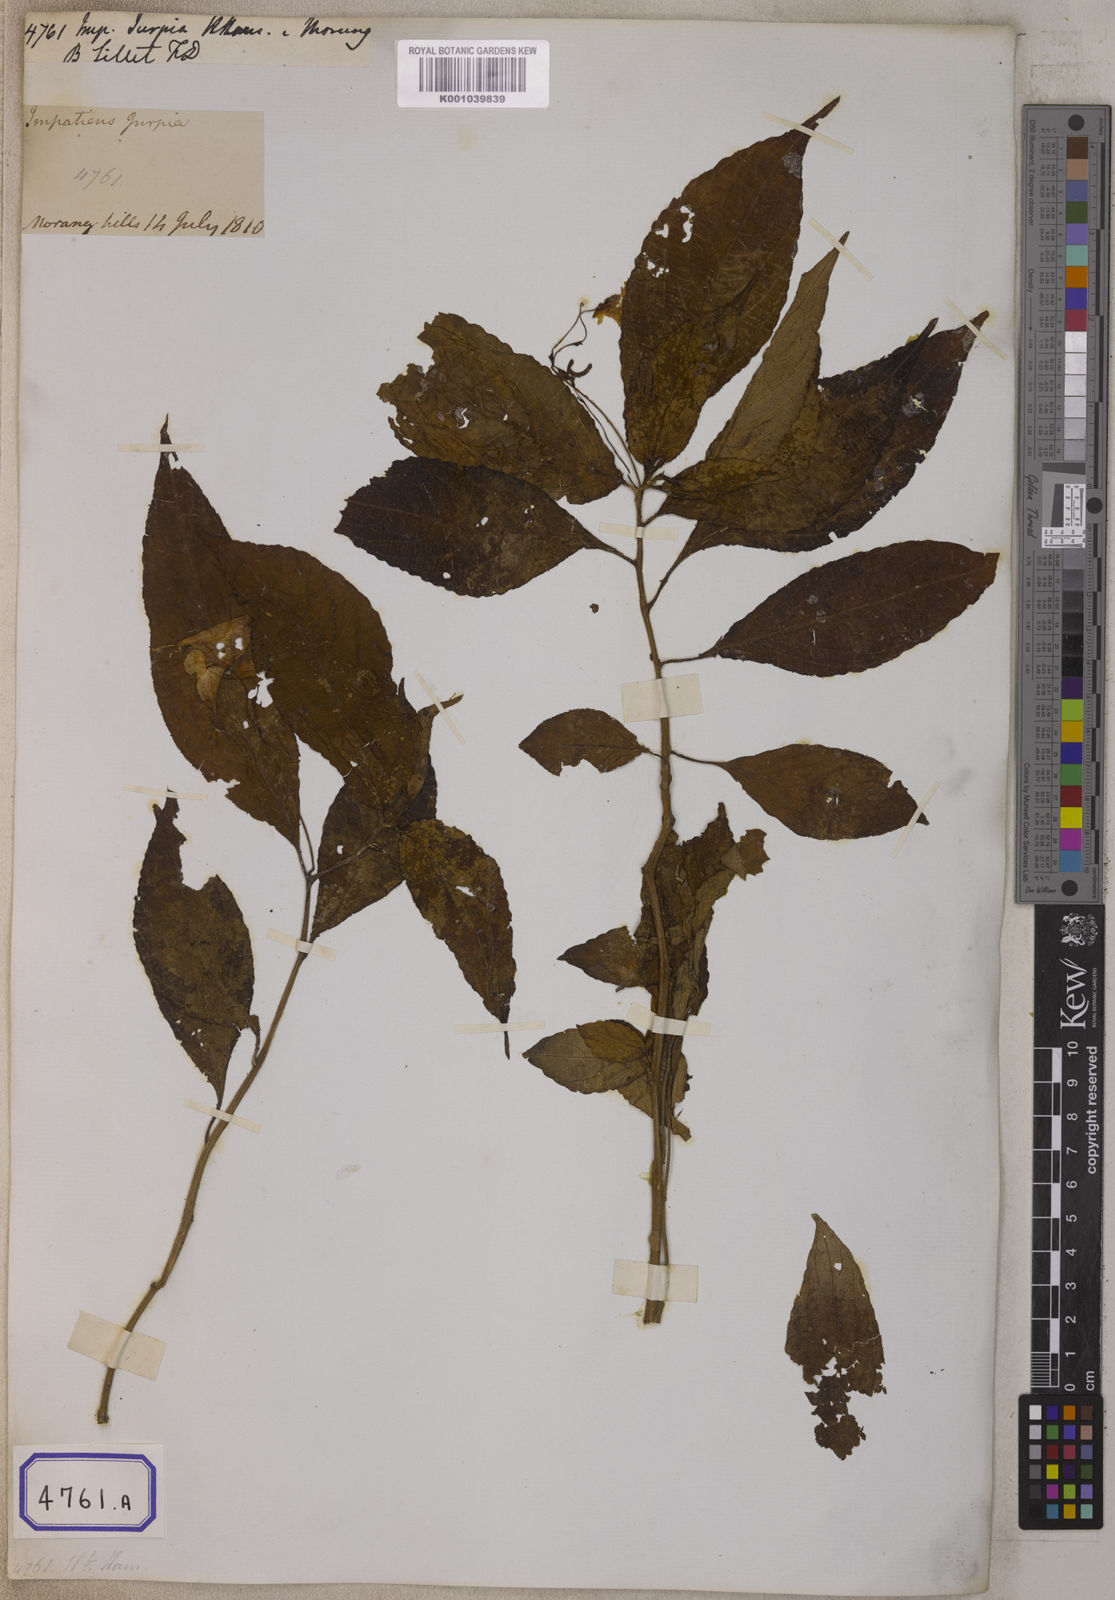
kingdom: Plantae
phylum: Tracheophyta
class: Magnoliopsida
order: Ericales
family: Balsaminaceae
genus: Impatiens
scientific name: Impatiens
